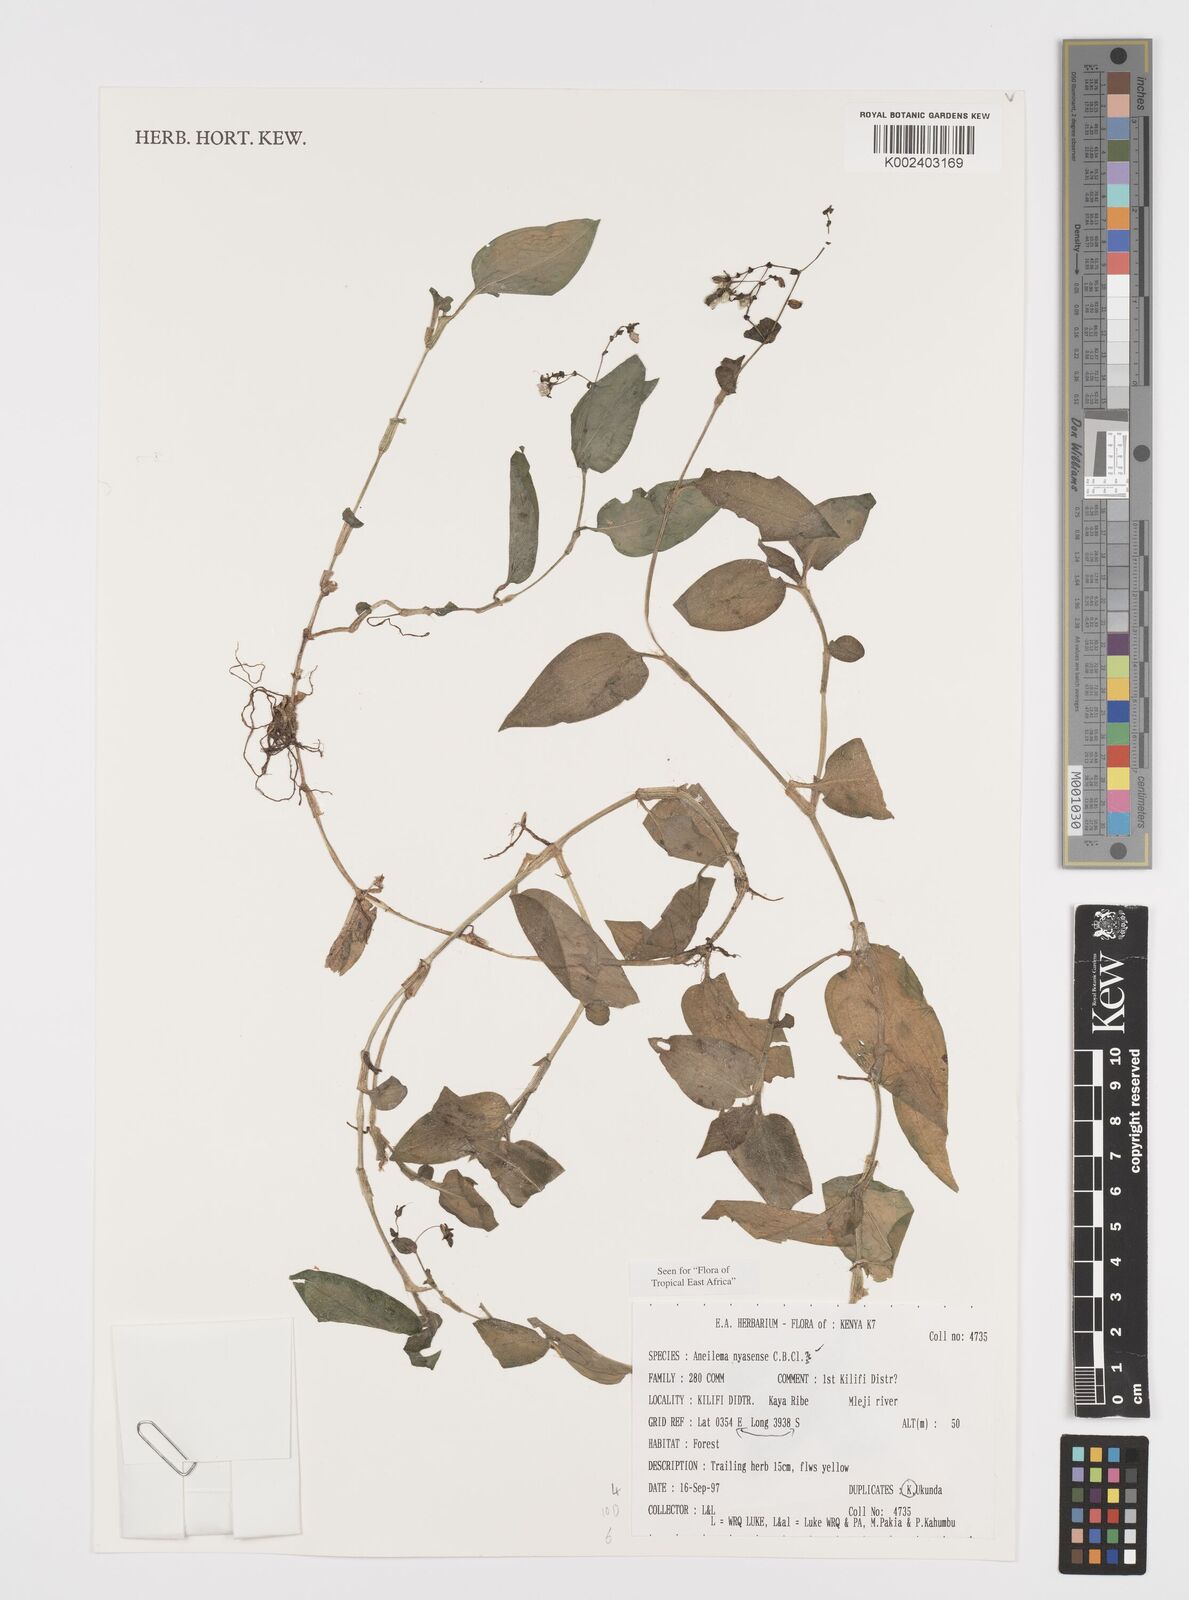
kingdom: Plantae
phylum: Tracheophyta
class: Liliopsida
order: Commelinales
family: Commelinaceae
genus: Aneilema
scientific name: Aneilema nyasense
